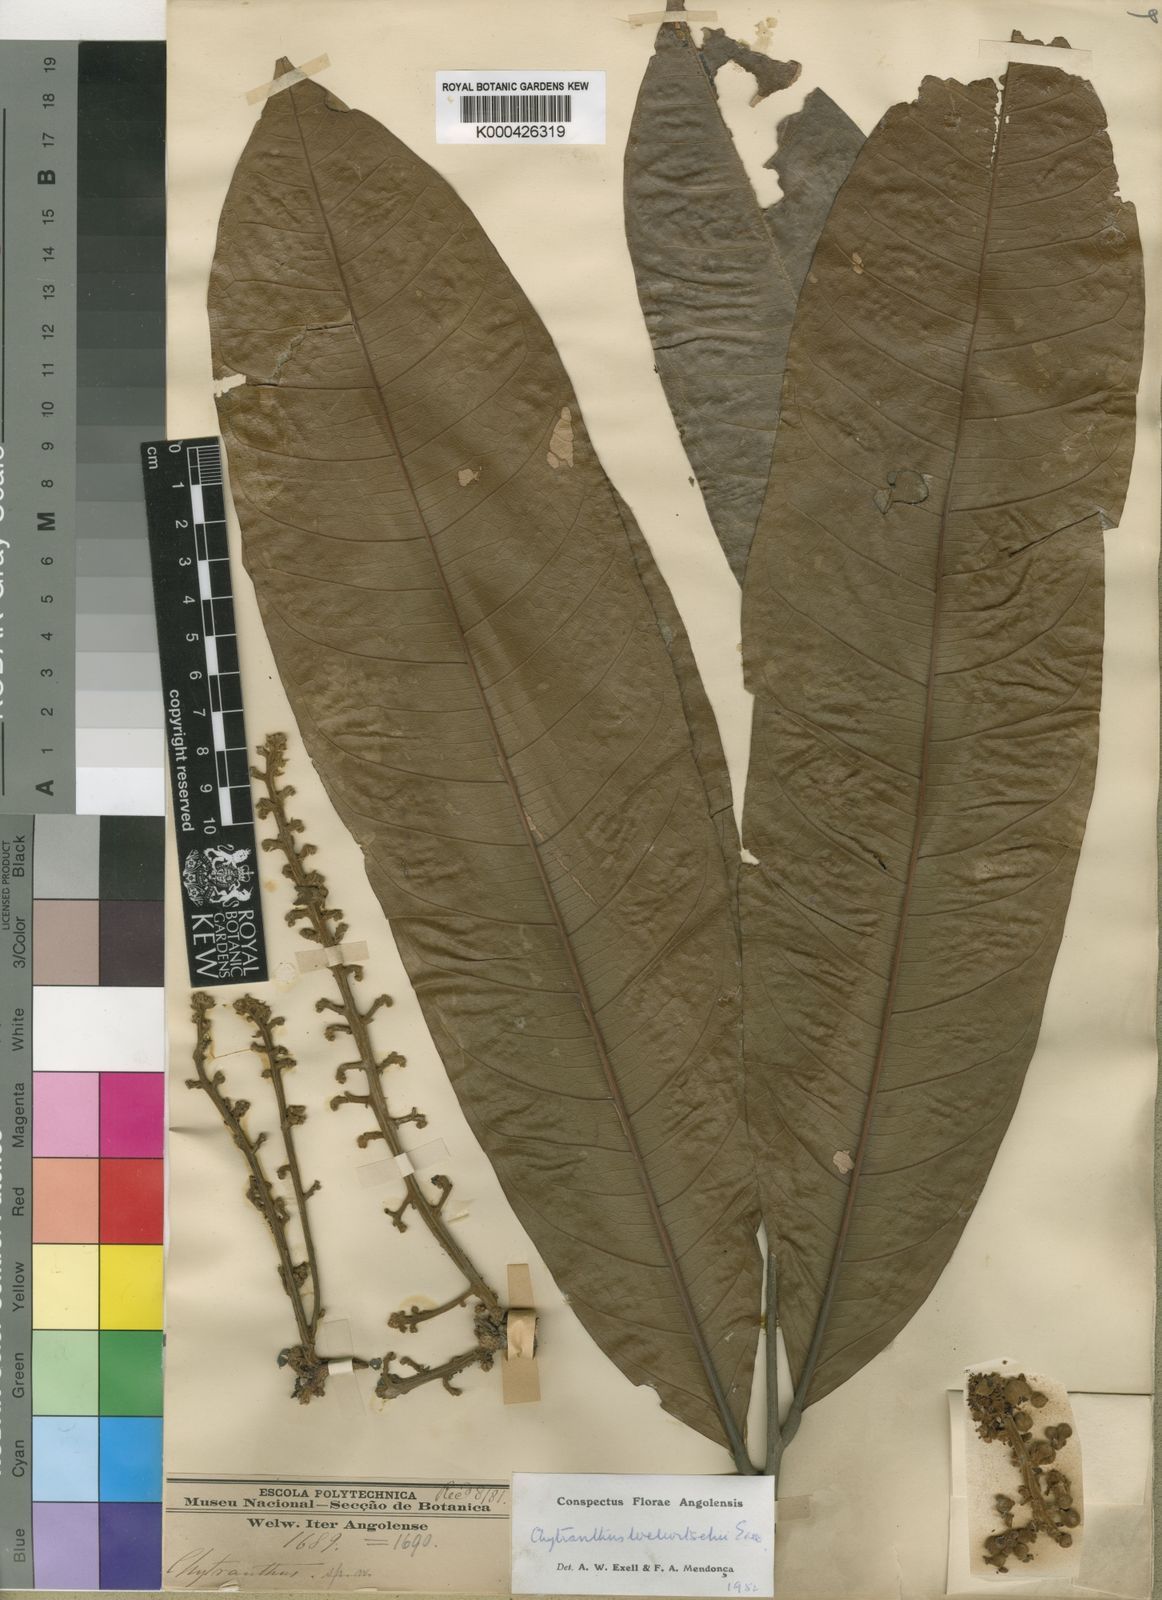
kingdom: Plantae
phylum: Tracheophyta
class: Magnoliopsida
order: Sapindales
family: Sapindaceae
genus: Chytranthus
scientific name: Chytranthus carneus
